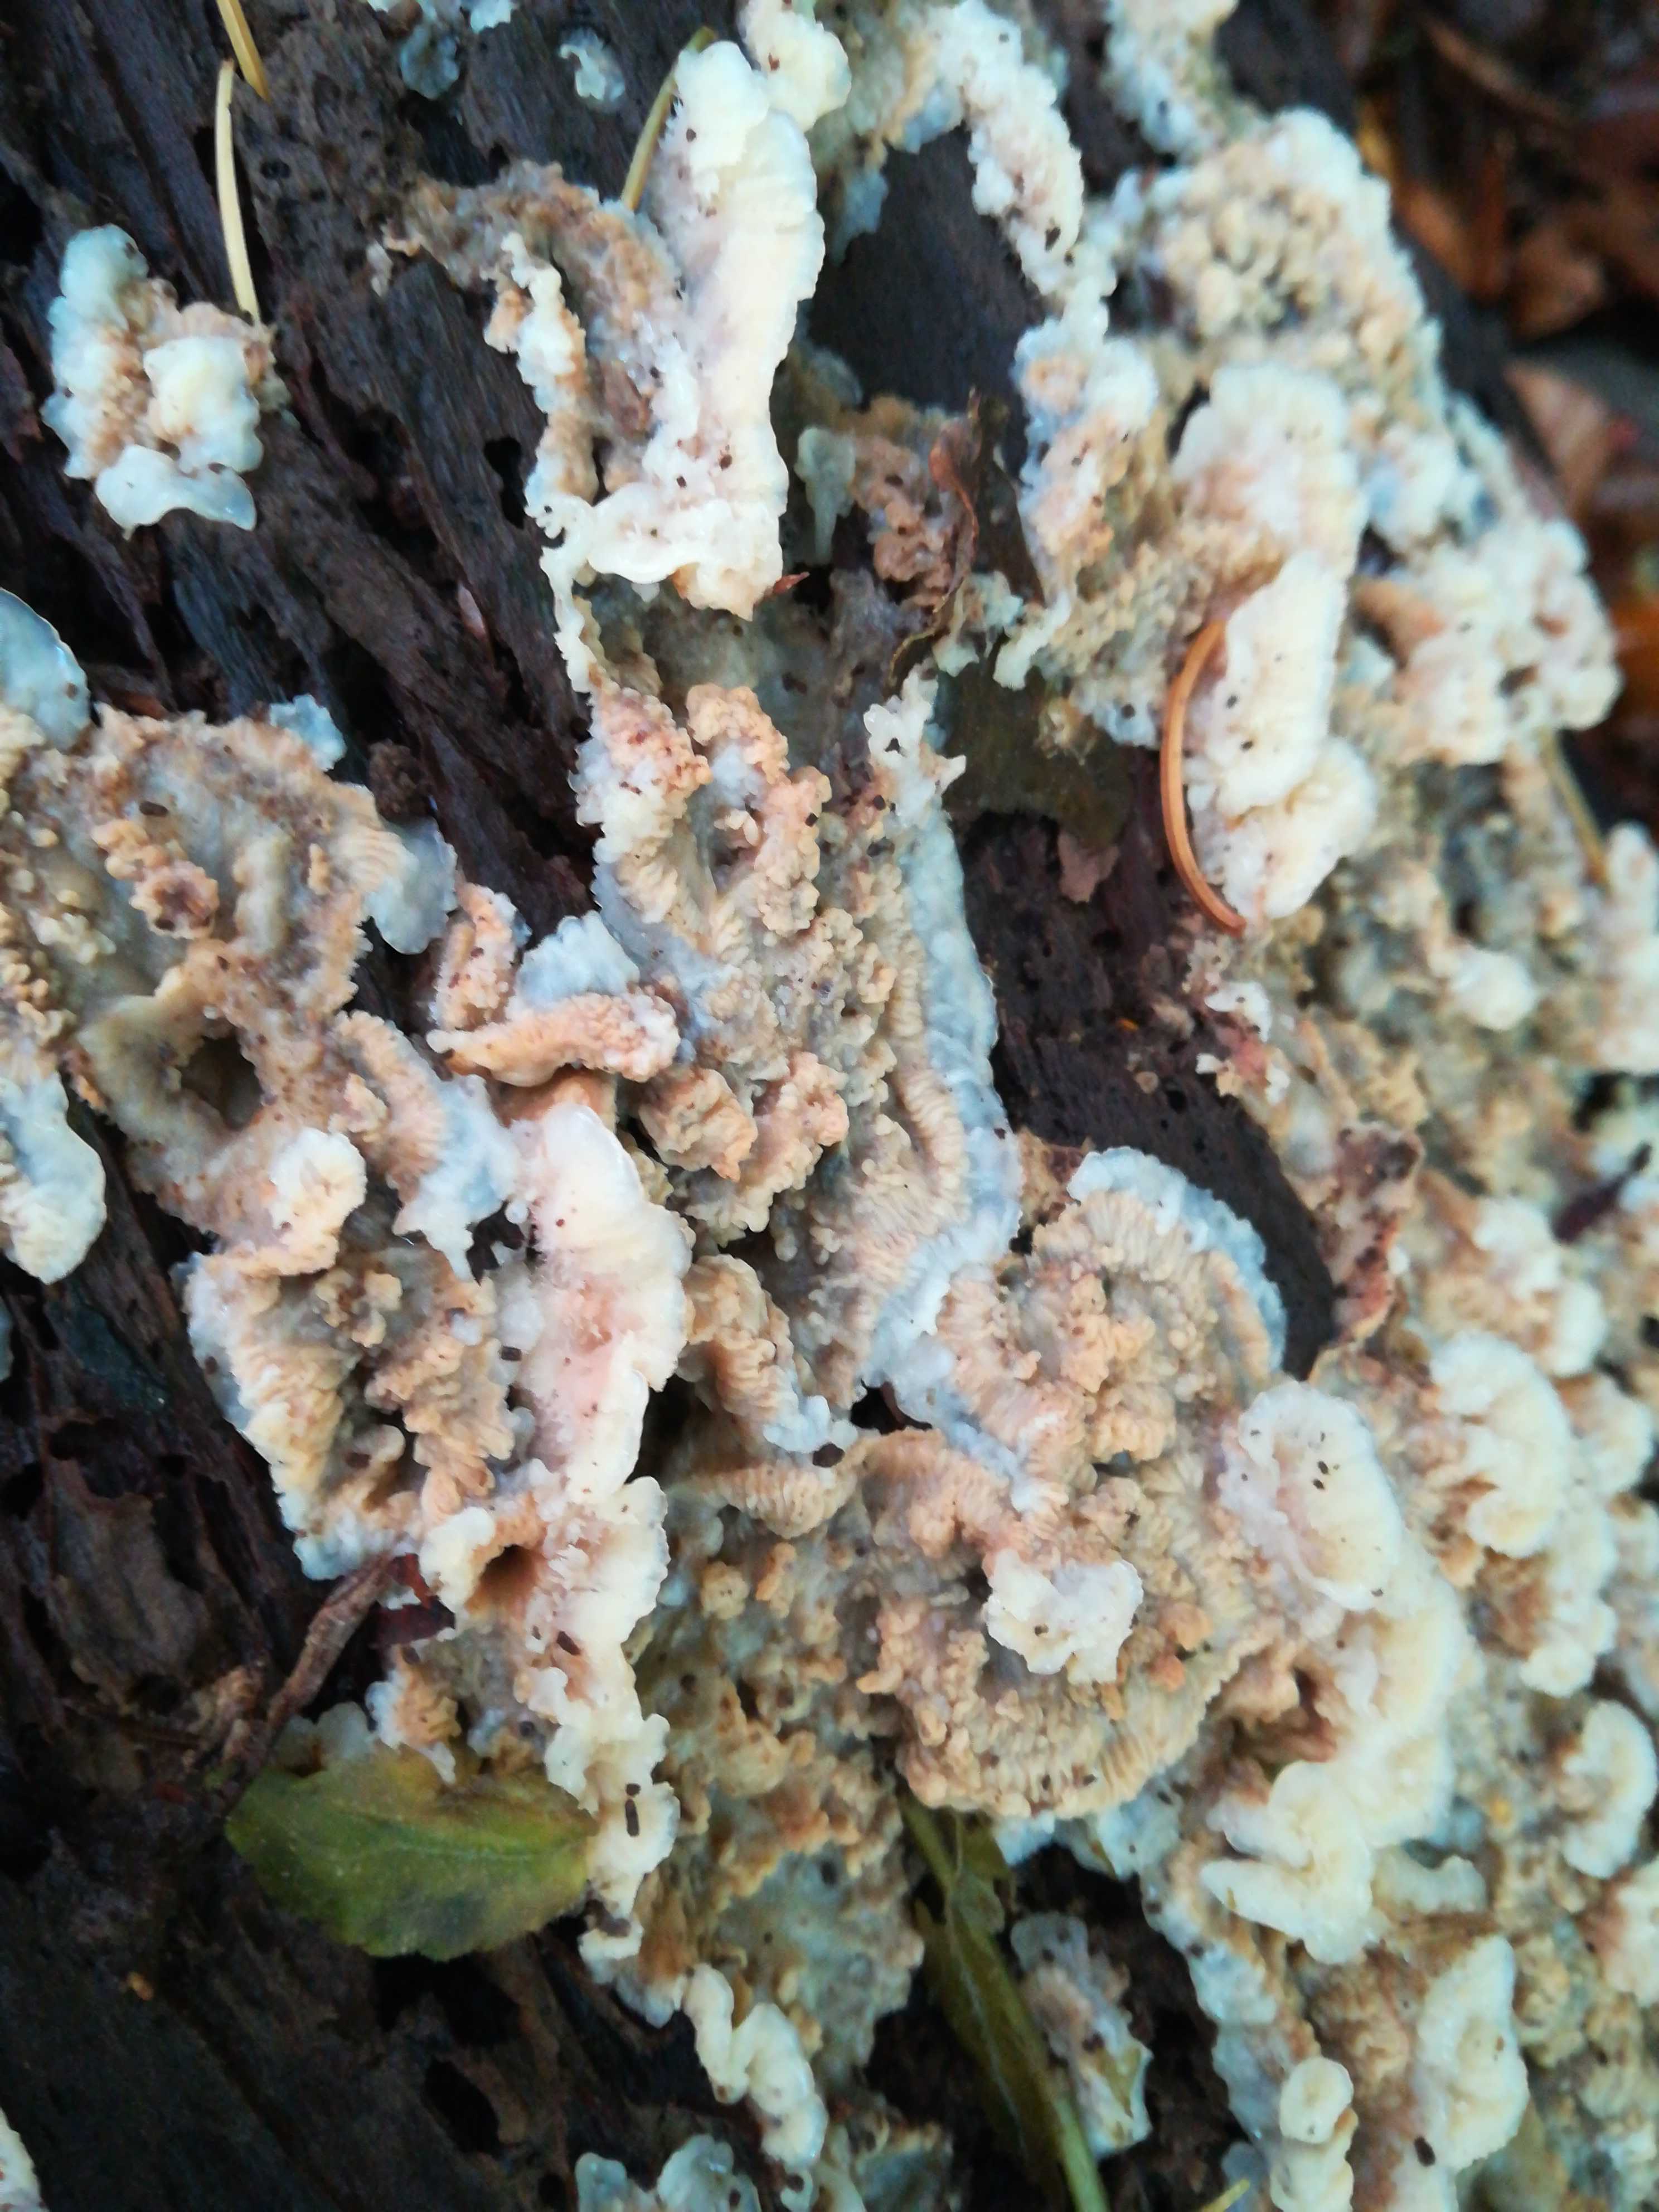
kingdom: Fungi
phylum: Basidiomycota
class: Agaricomycetes
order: Polyporales
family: Meruliaceae
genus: Phlebia
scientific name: Phlebia tremellosa
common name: bævrende åresvamp
